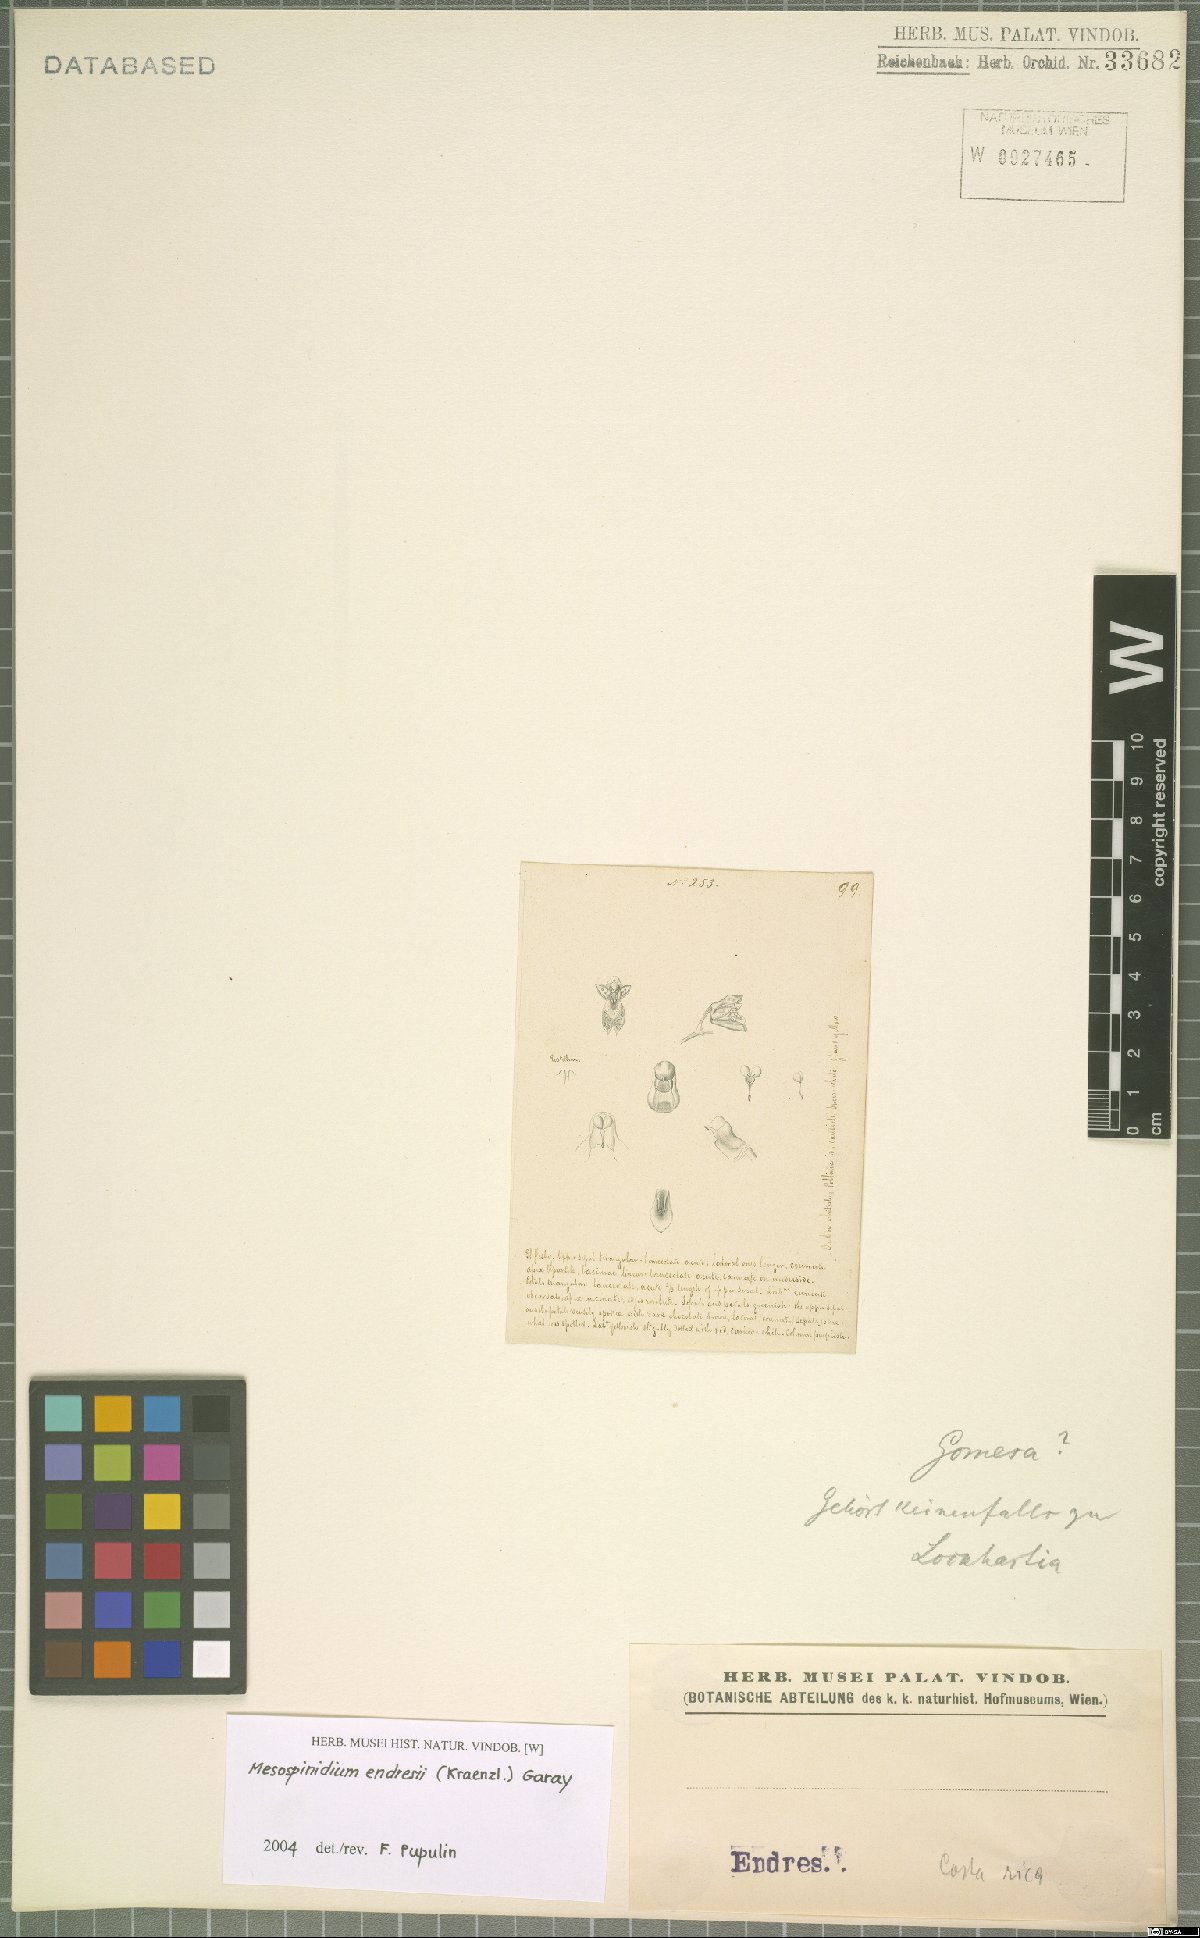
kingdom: Plantae
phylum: Tracheophyta
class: Liliopsida
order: Asparagales
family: Orchidaceae
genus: Brassia
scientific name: Brassia endresii
